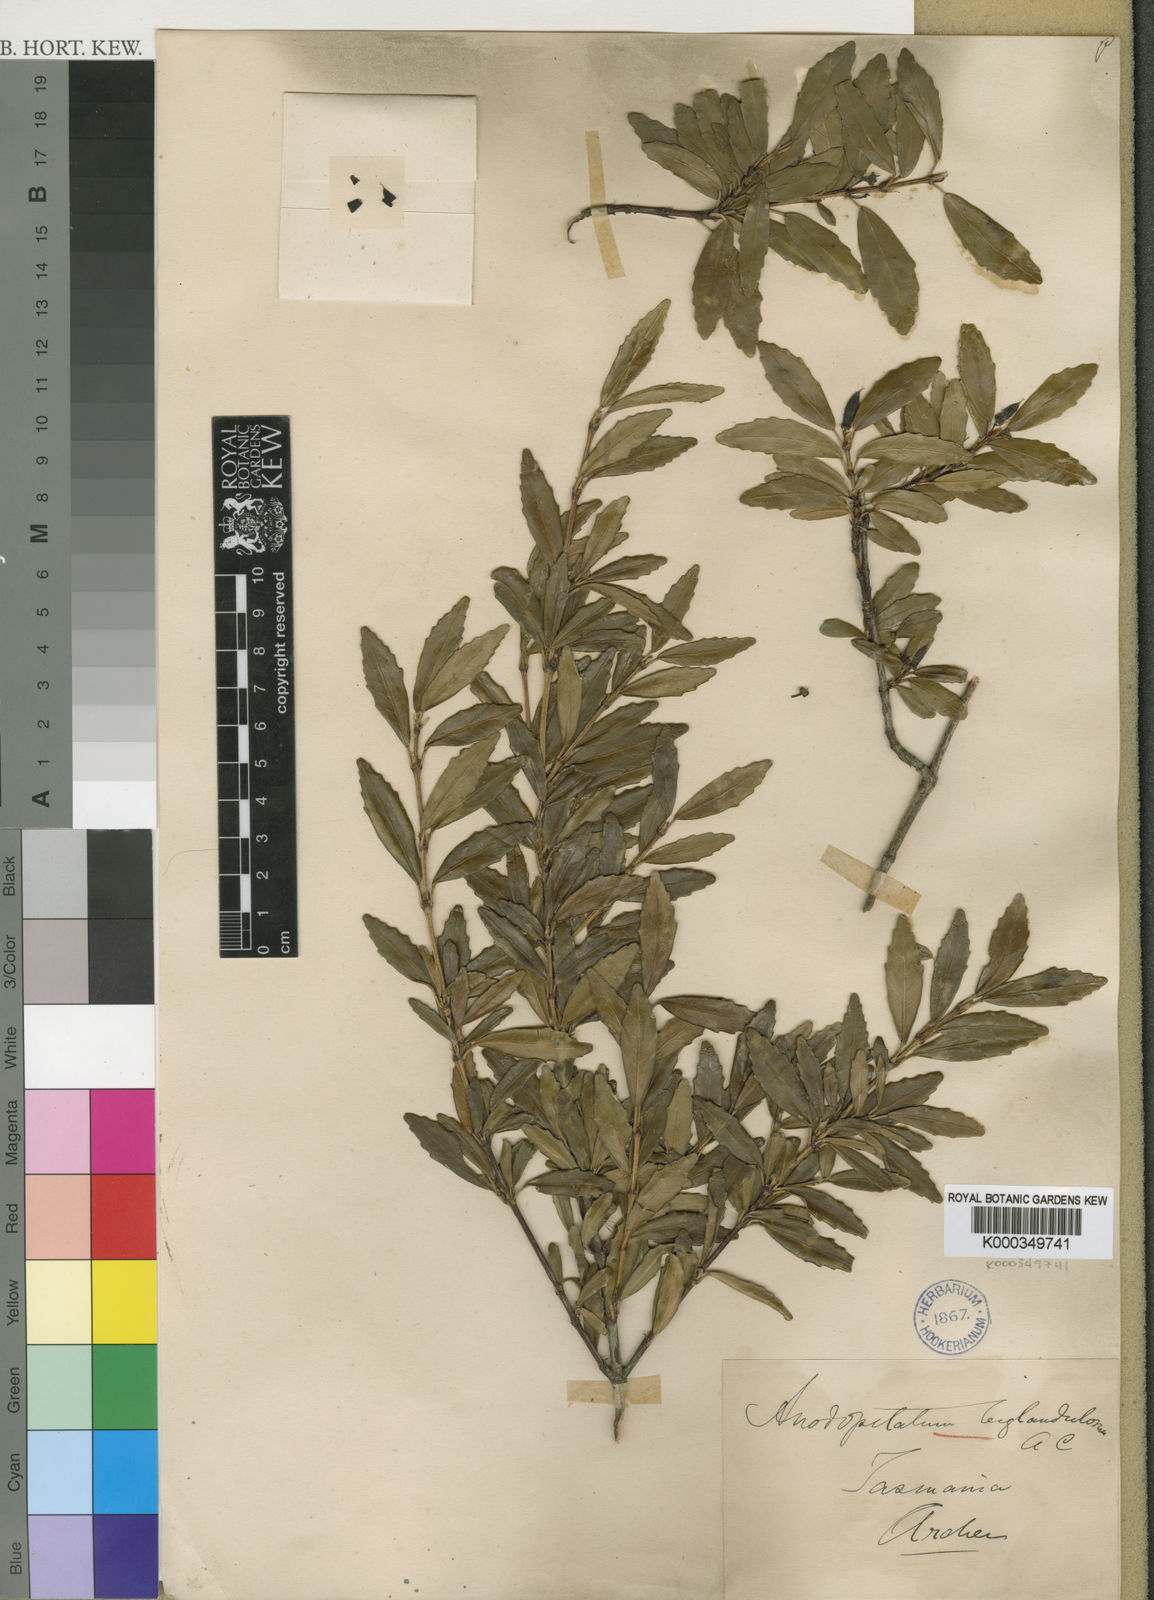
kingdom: Plantae
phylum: Tracheophyta
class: Magnoliopsida
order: Oxalidales
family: Cunoniaceae
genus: Anodopetalum
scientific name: Anodopetalum biglandulosum
